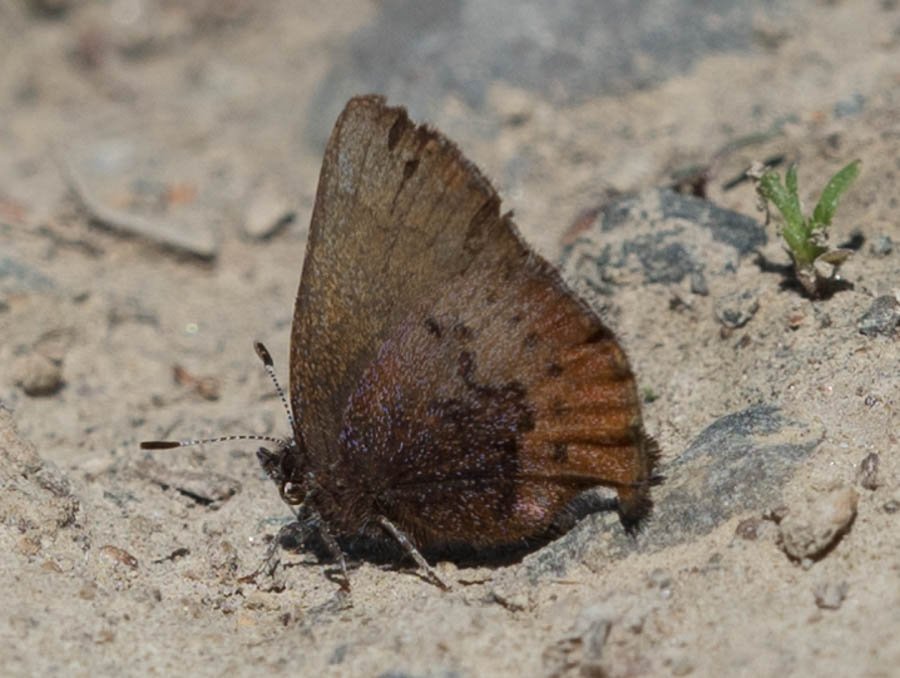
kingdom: Animalia
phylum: Arthropoda
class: Insecta
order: Lepidoptera
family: Lycaenidae
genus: Incisalia
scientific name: Incisalia irioides
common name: Brown Elfin
